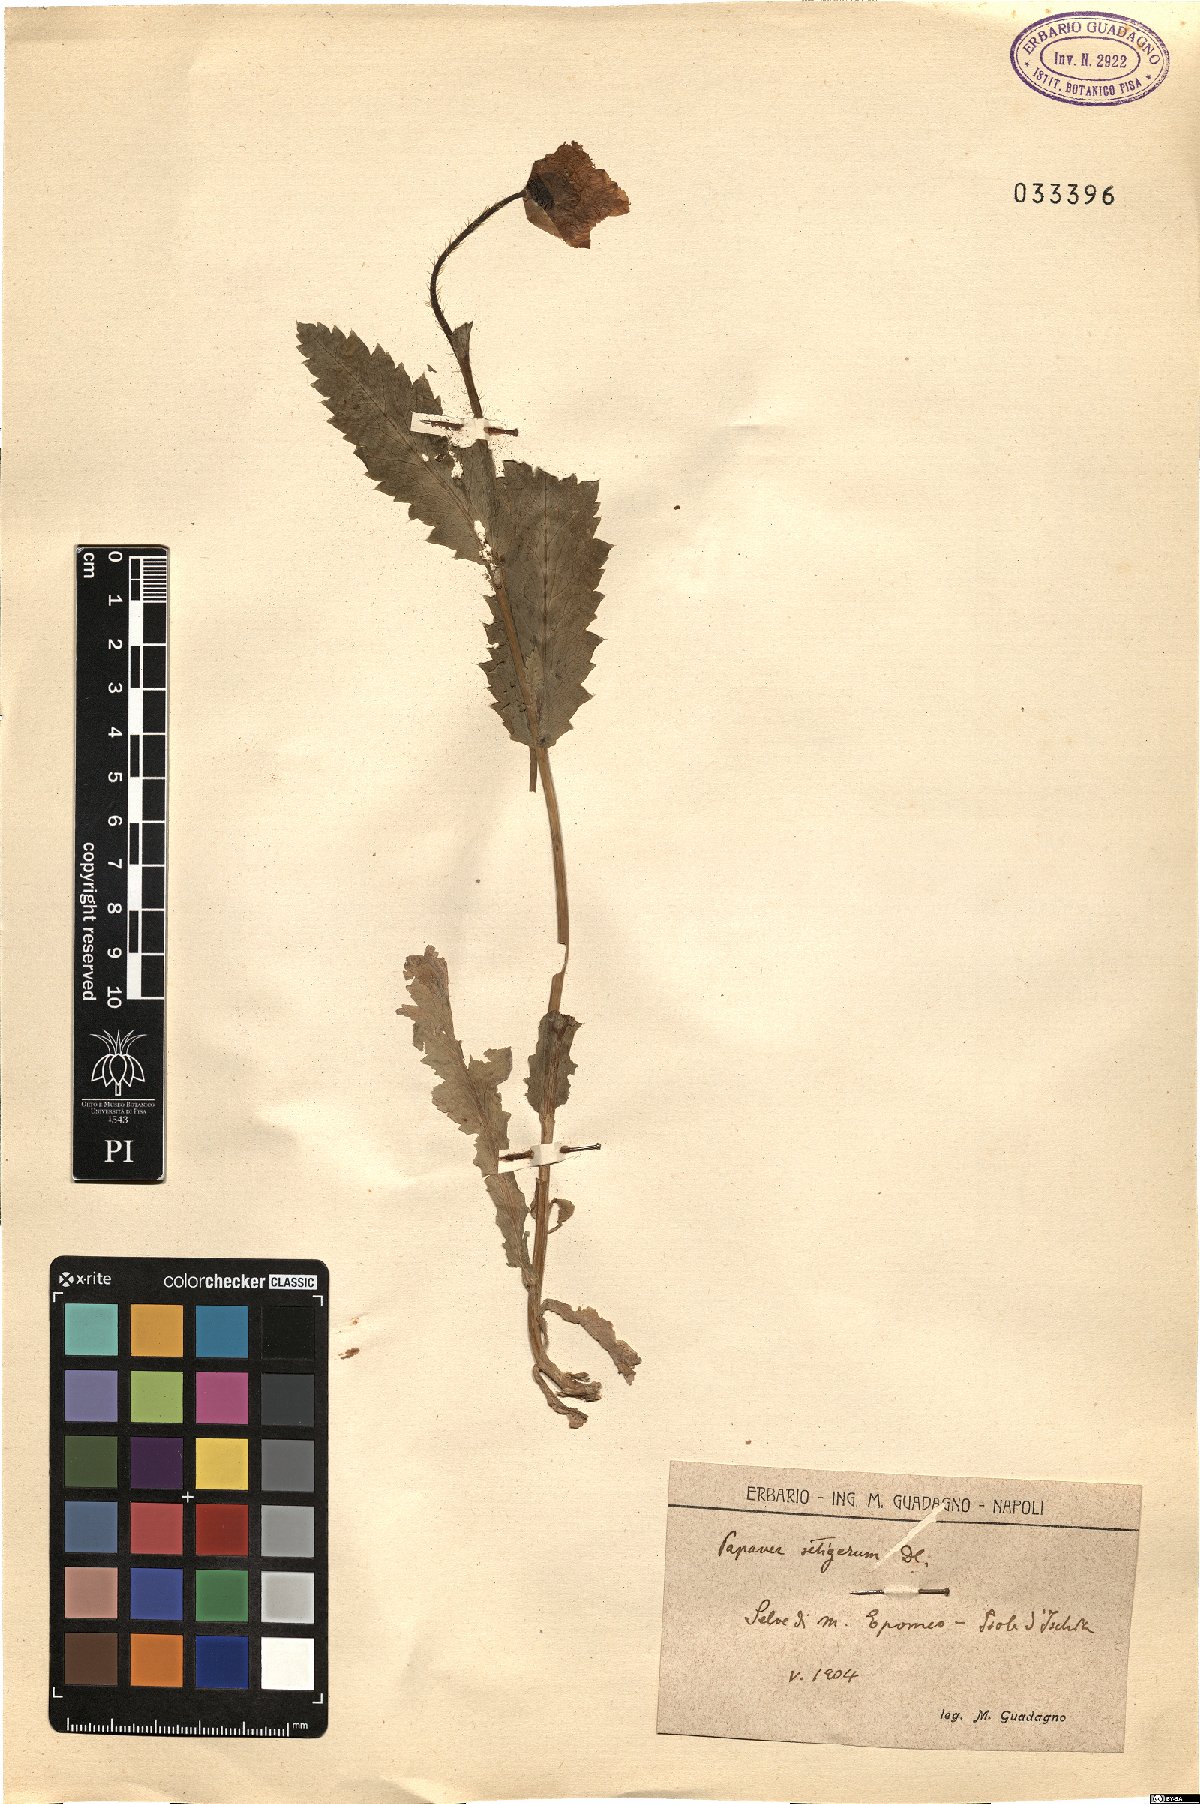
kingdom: Plantae
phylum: Tracheophyta
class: Magnoliopsida
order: Ranunculales
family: Papaveraceae
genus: Papaver
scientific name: Papaver setigerum
